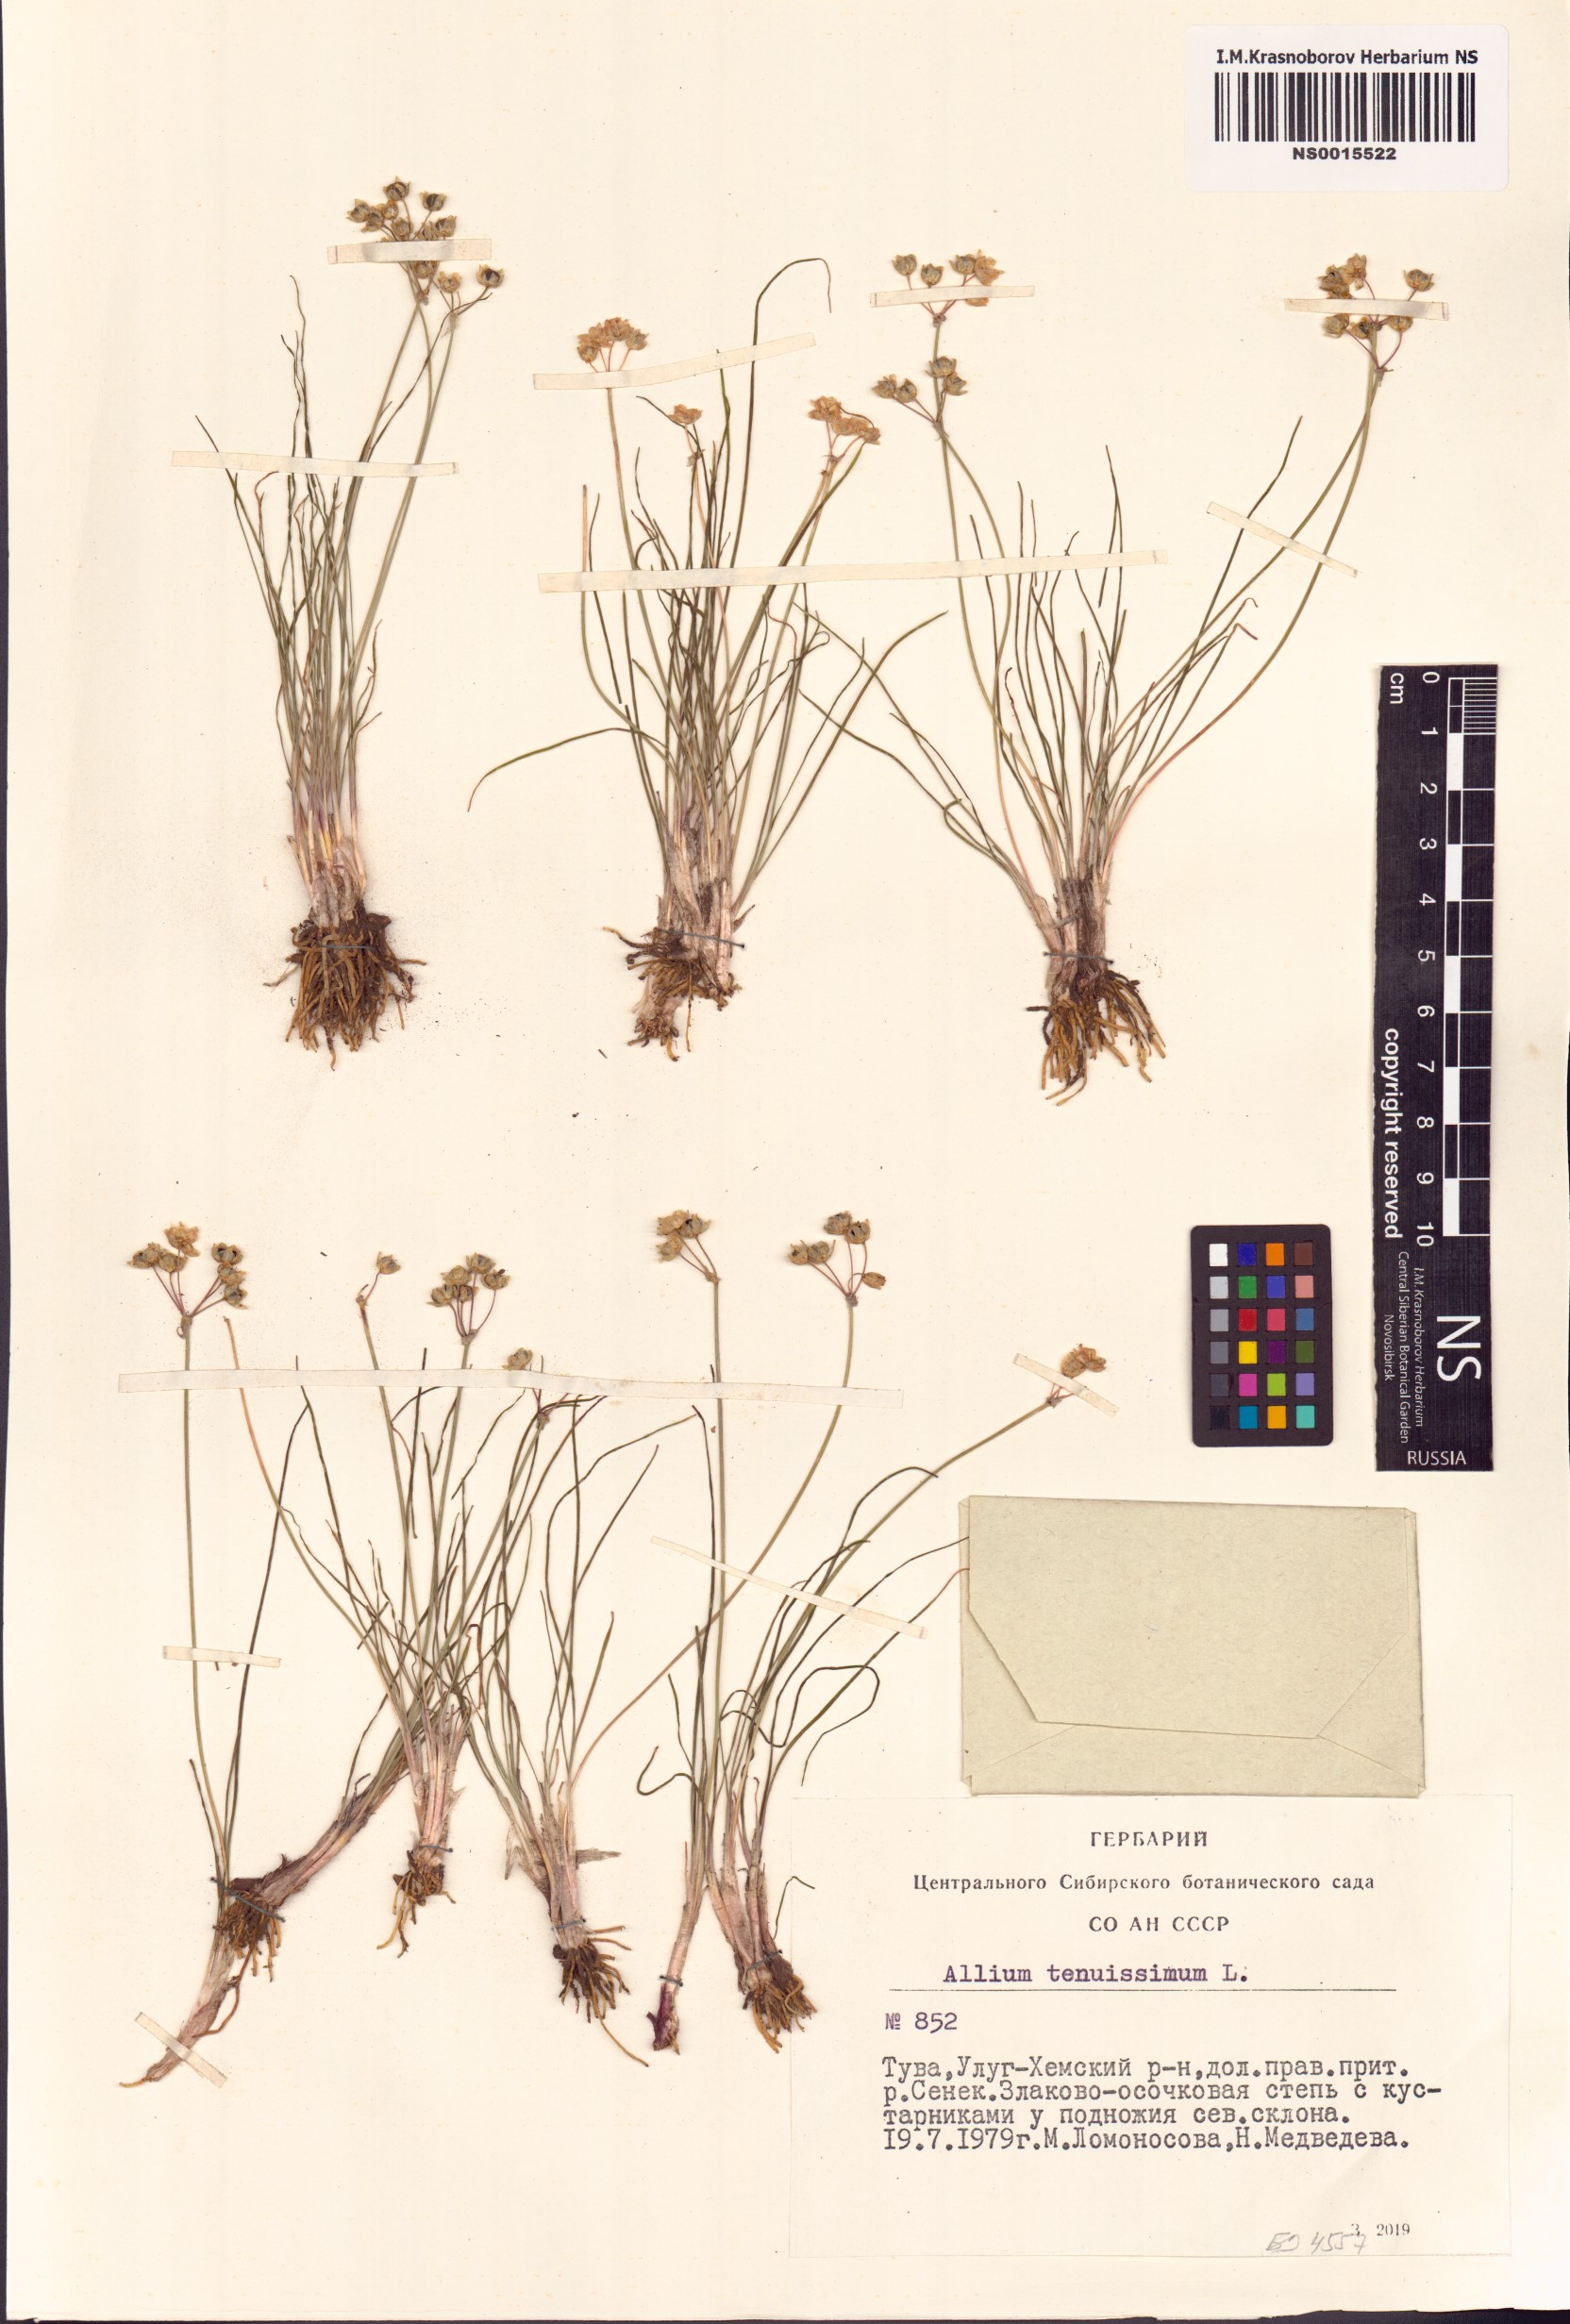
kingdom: Plantae
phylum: Tracheophyta
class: Liliopsida
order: Asparagales
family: Amaryllidaceae
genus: Allium
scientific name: Allium tenuissimum
